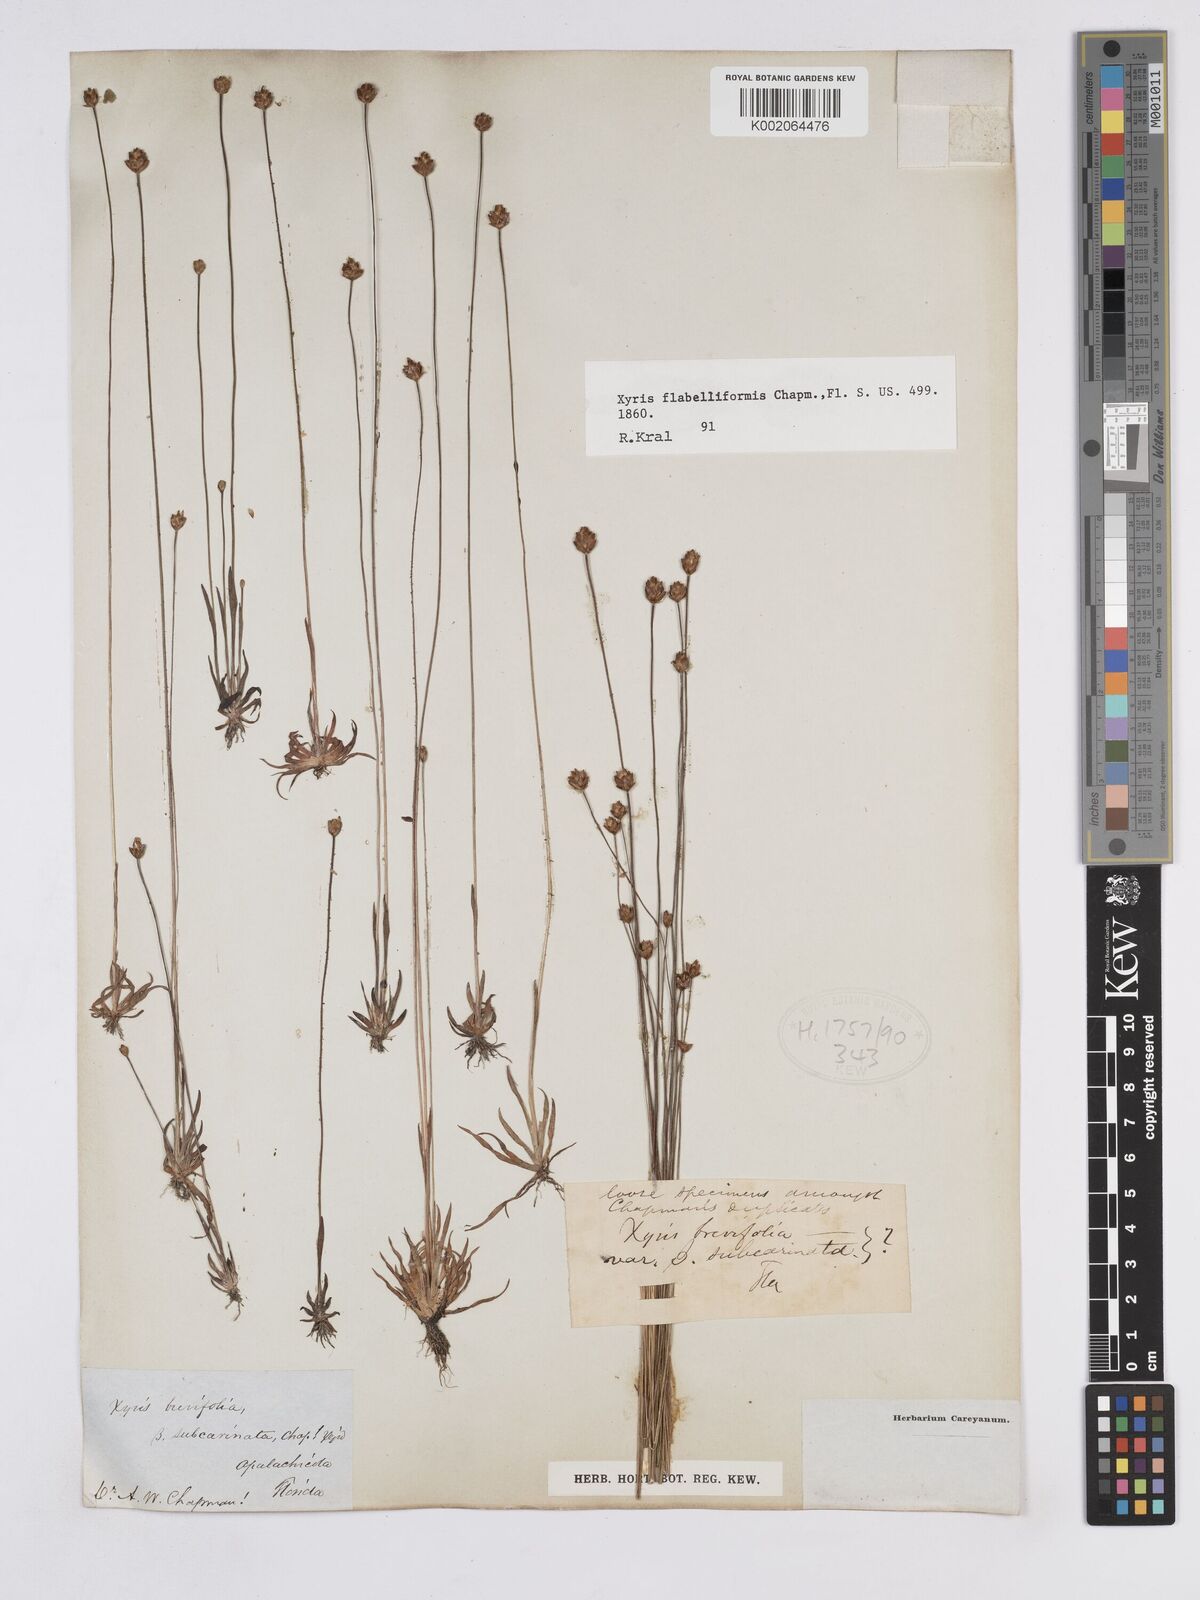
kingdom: Plantae
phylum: Tracheophyta
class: Liliopsida
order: Poales
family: Xyridaceae
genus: Xyris
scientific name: Xyris flabelliformis
